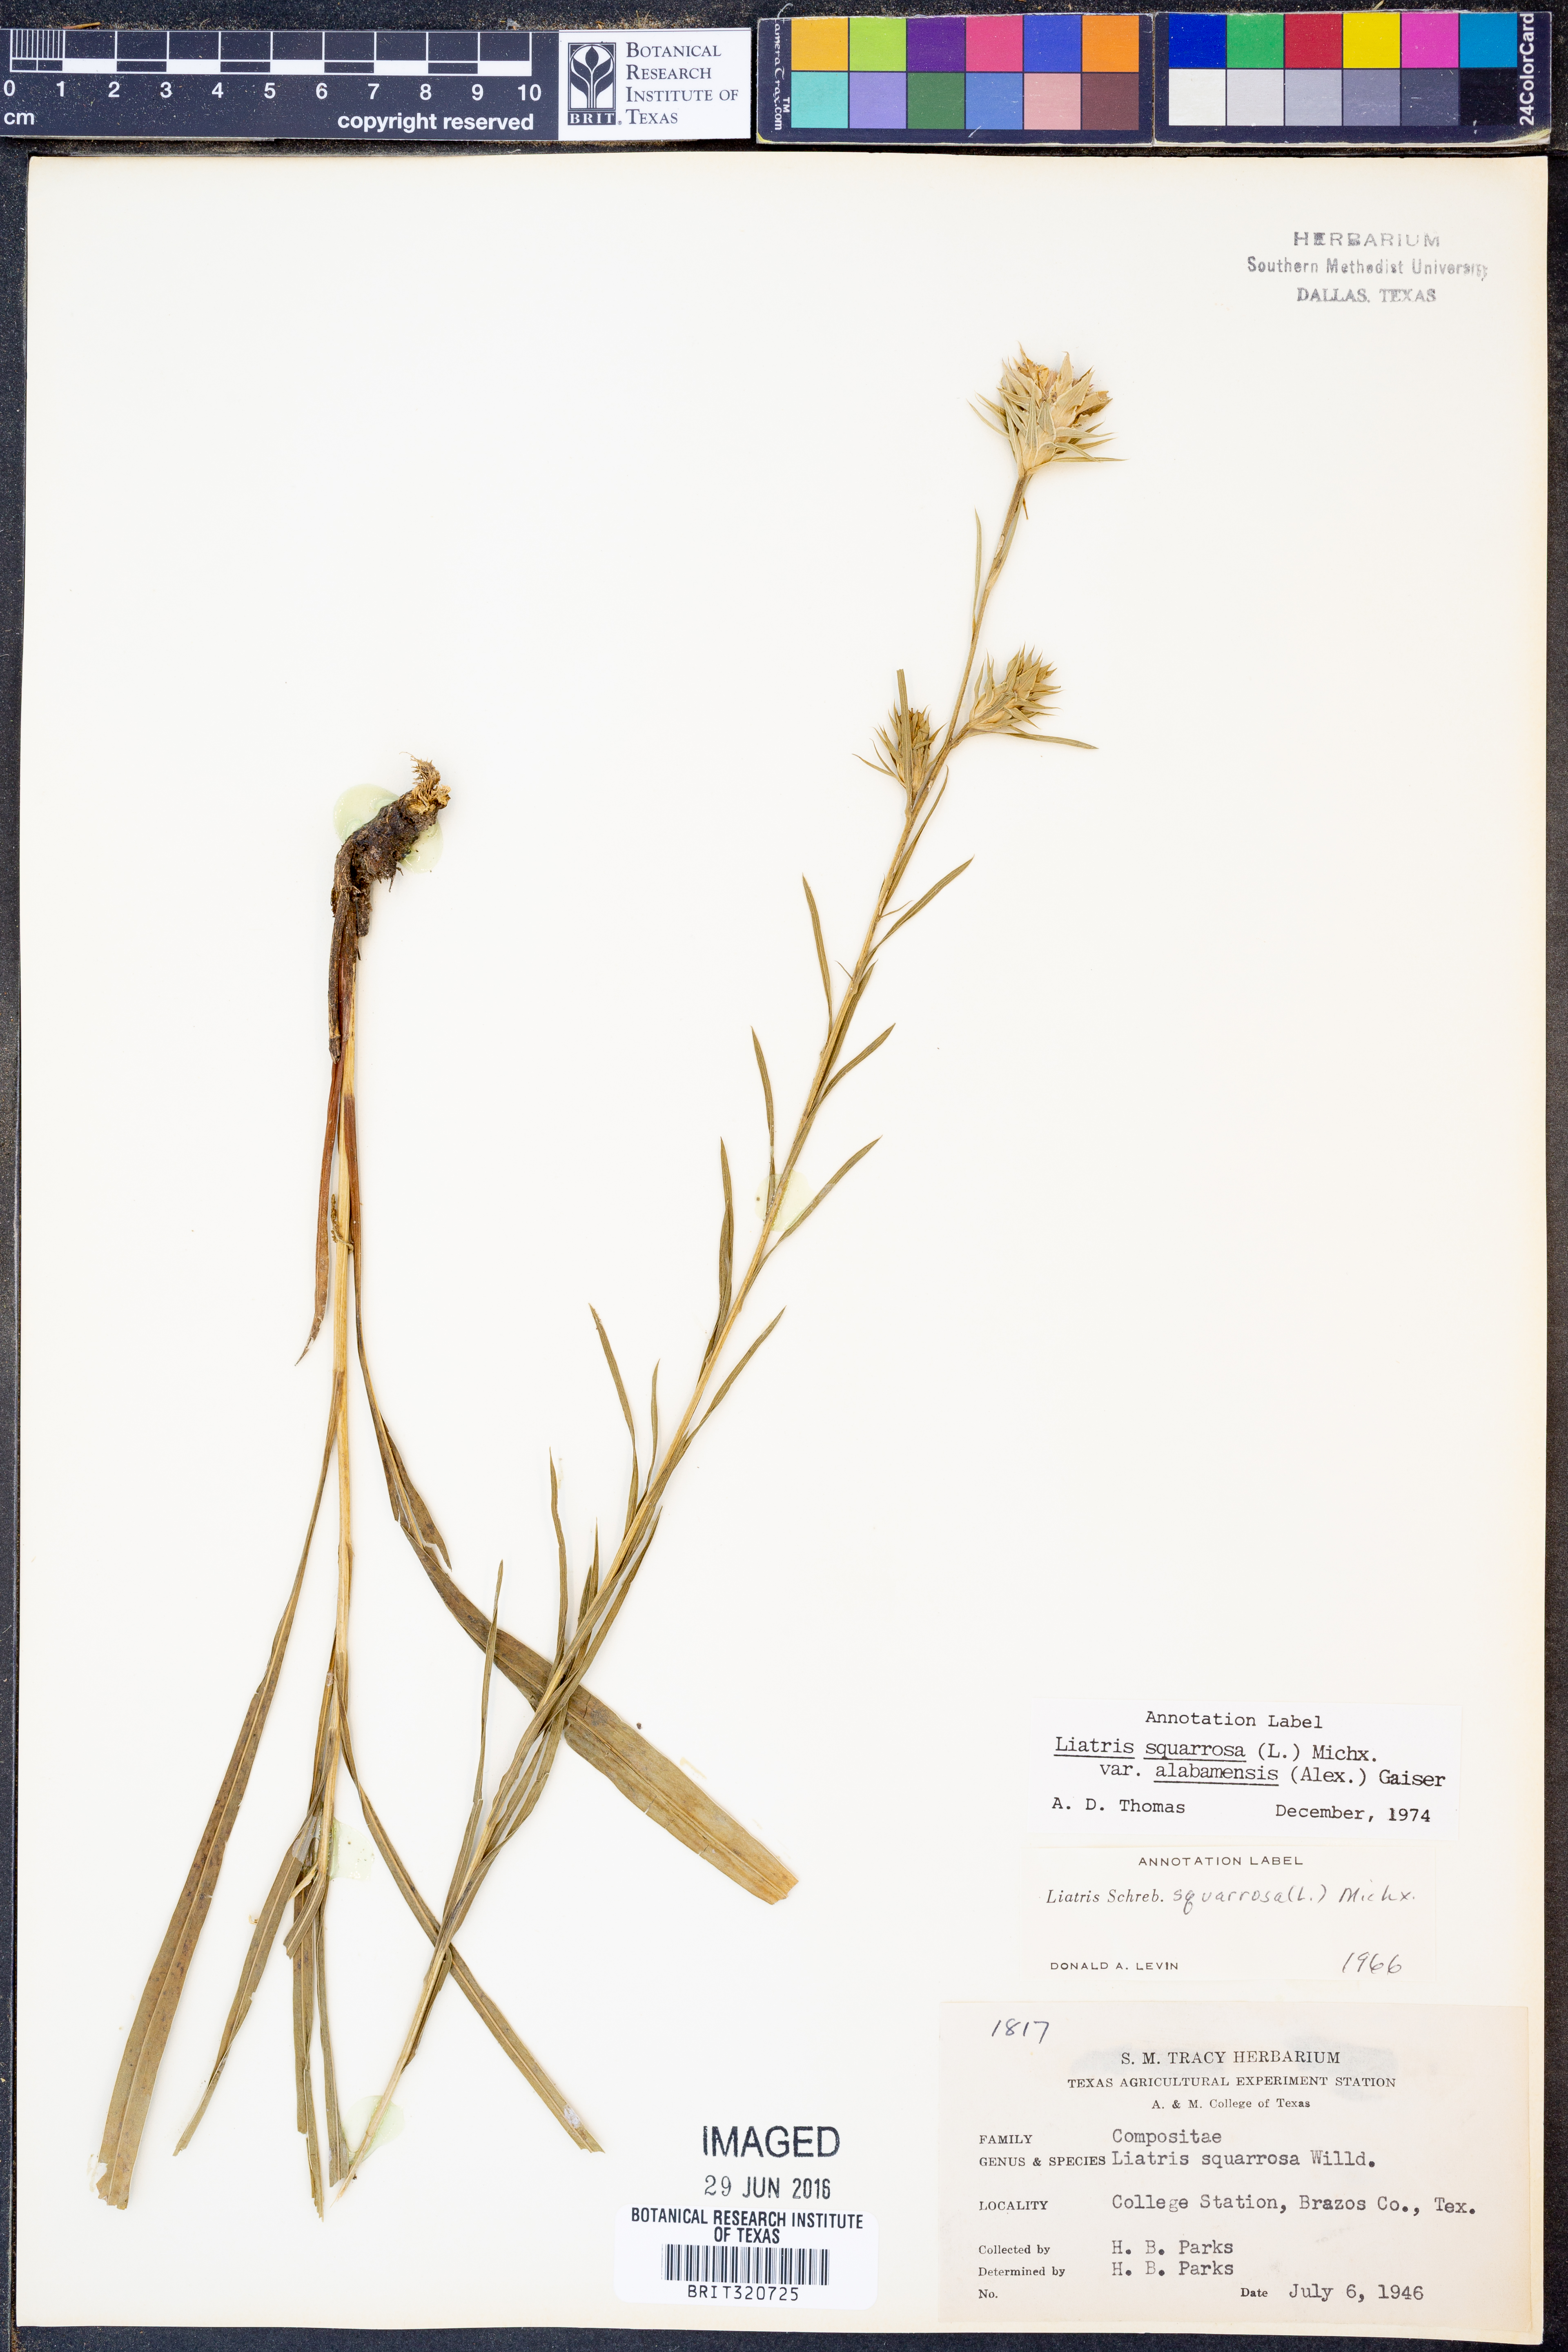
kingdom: Plantae
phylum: Tracheophyta
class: Magnoliopsida
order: Asterales
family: Asteraceae
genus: Liatris
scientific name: Liatris squarrosa
